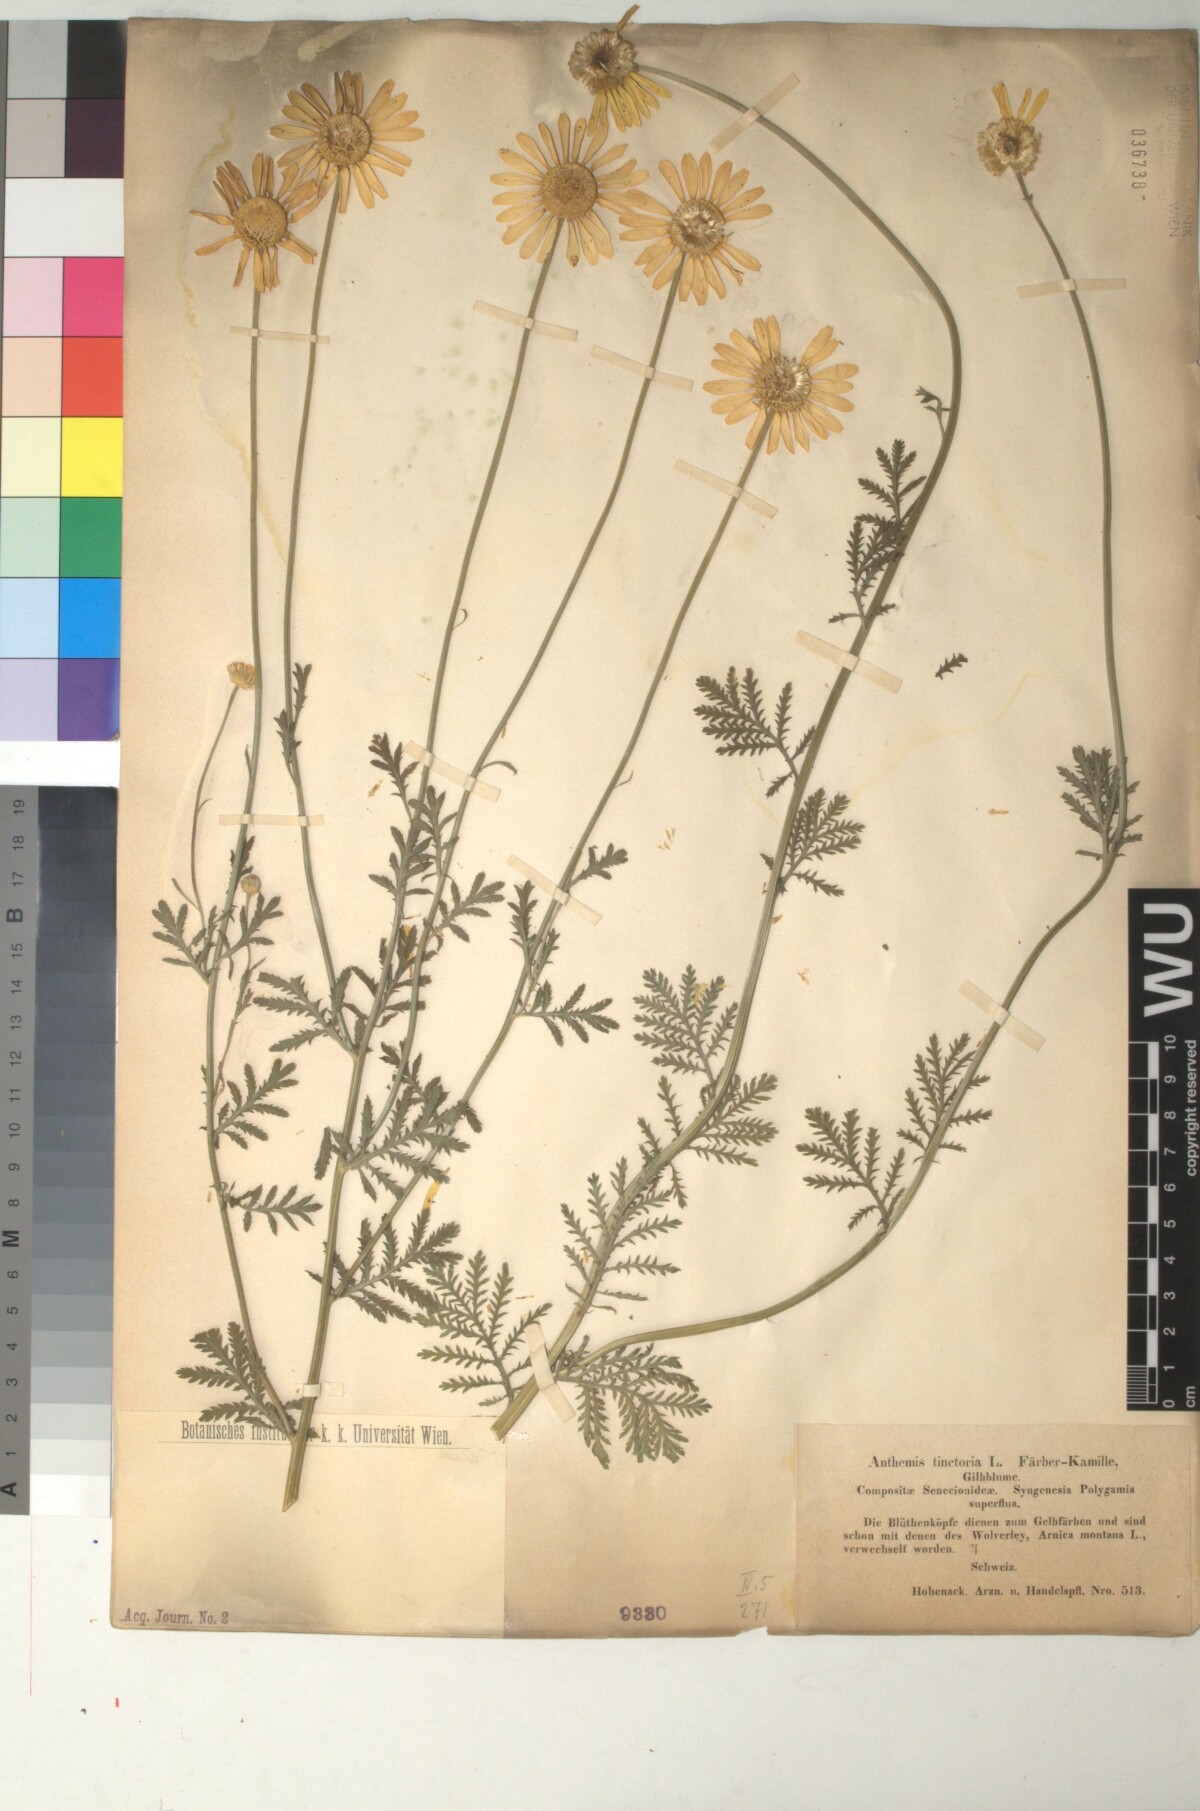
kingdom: Plantae
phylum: Tracheophyta
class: Magnoliopsida
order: Asterales
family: Asteraceae
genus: Cota
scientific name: Cota tinctoria
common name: Golden chamomile
